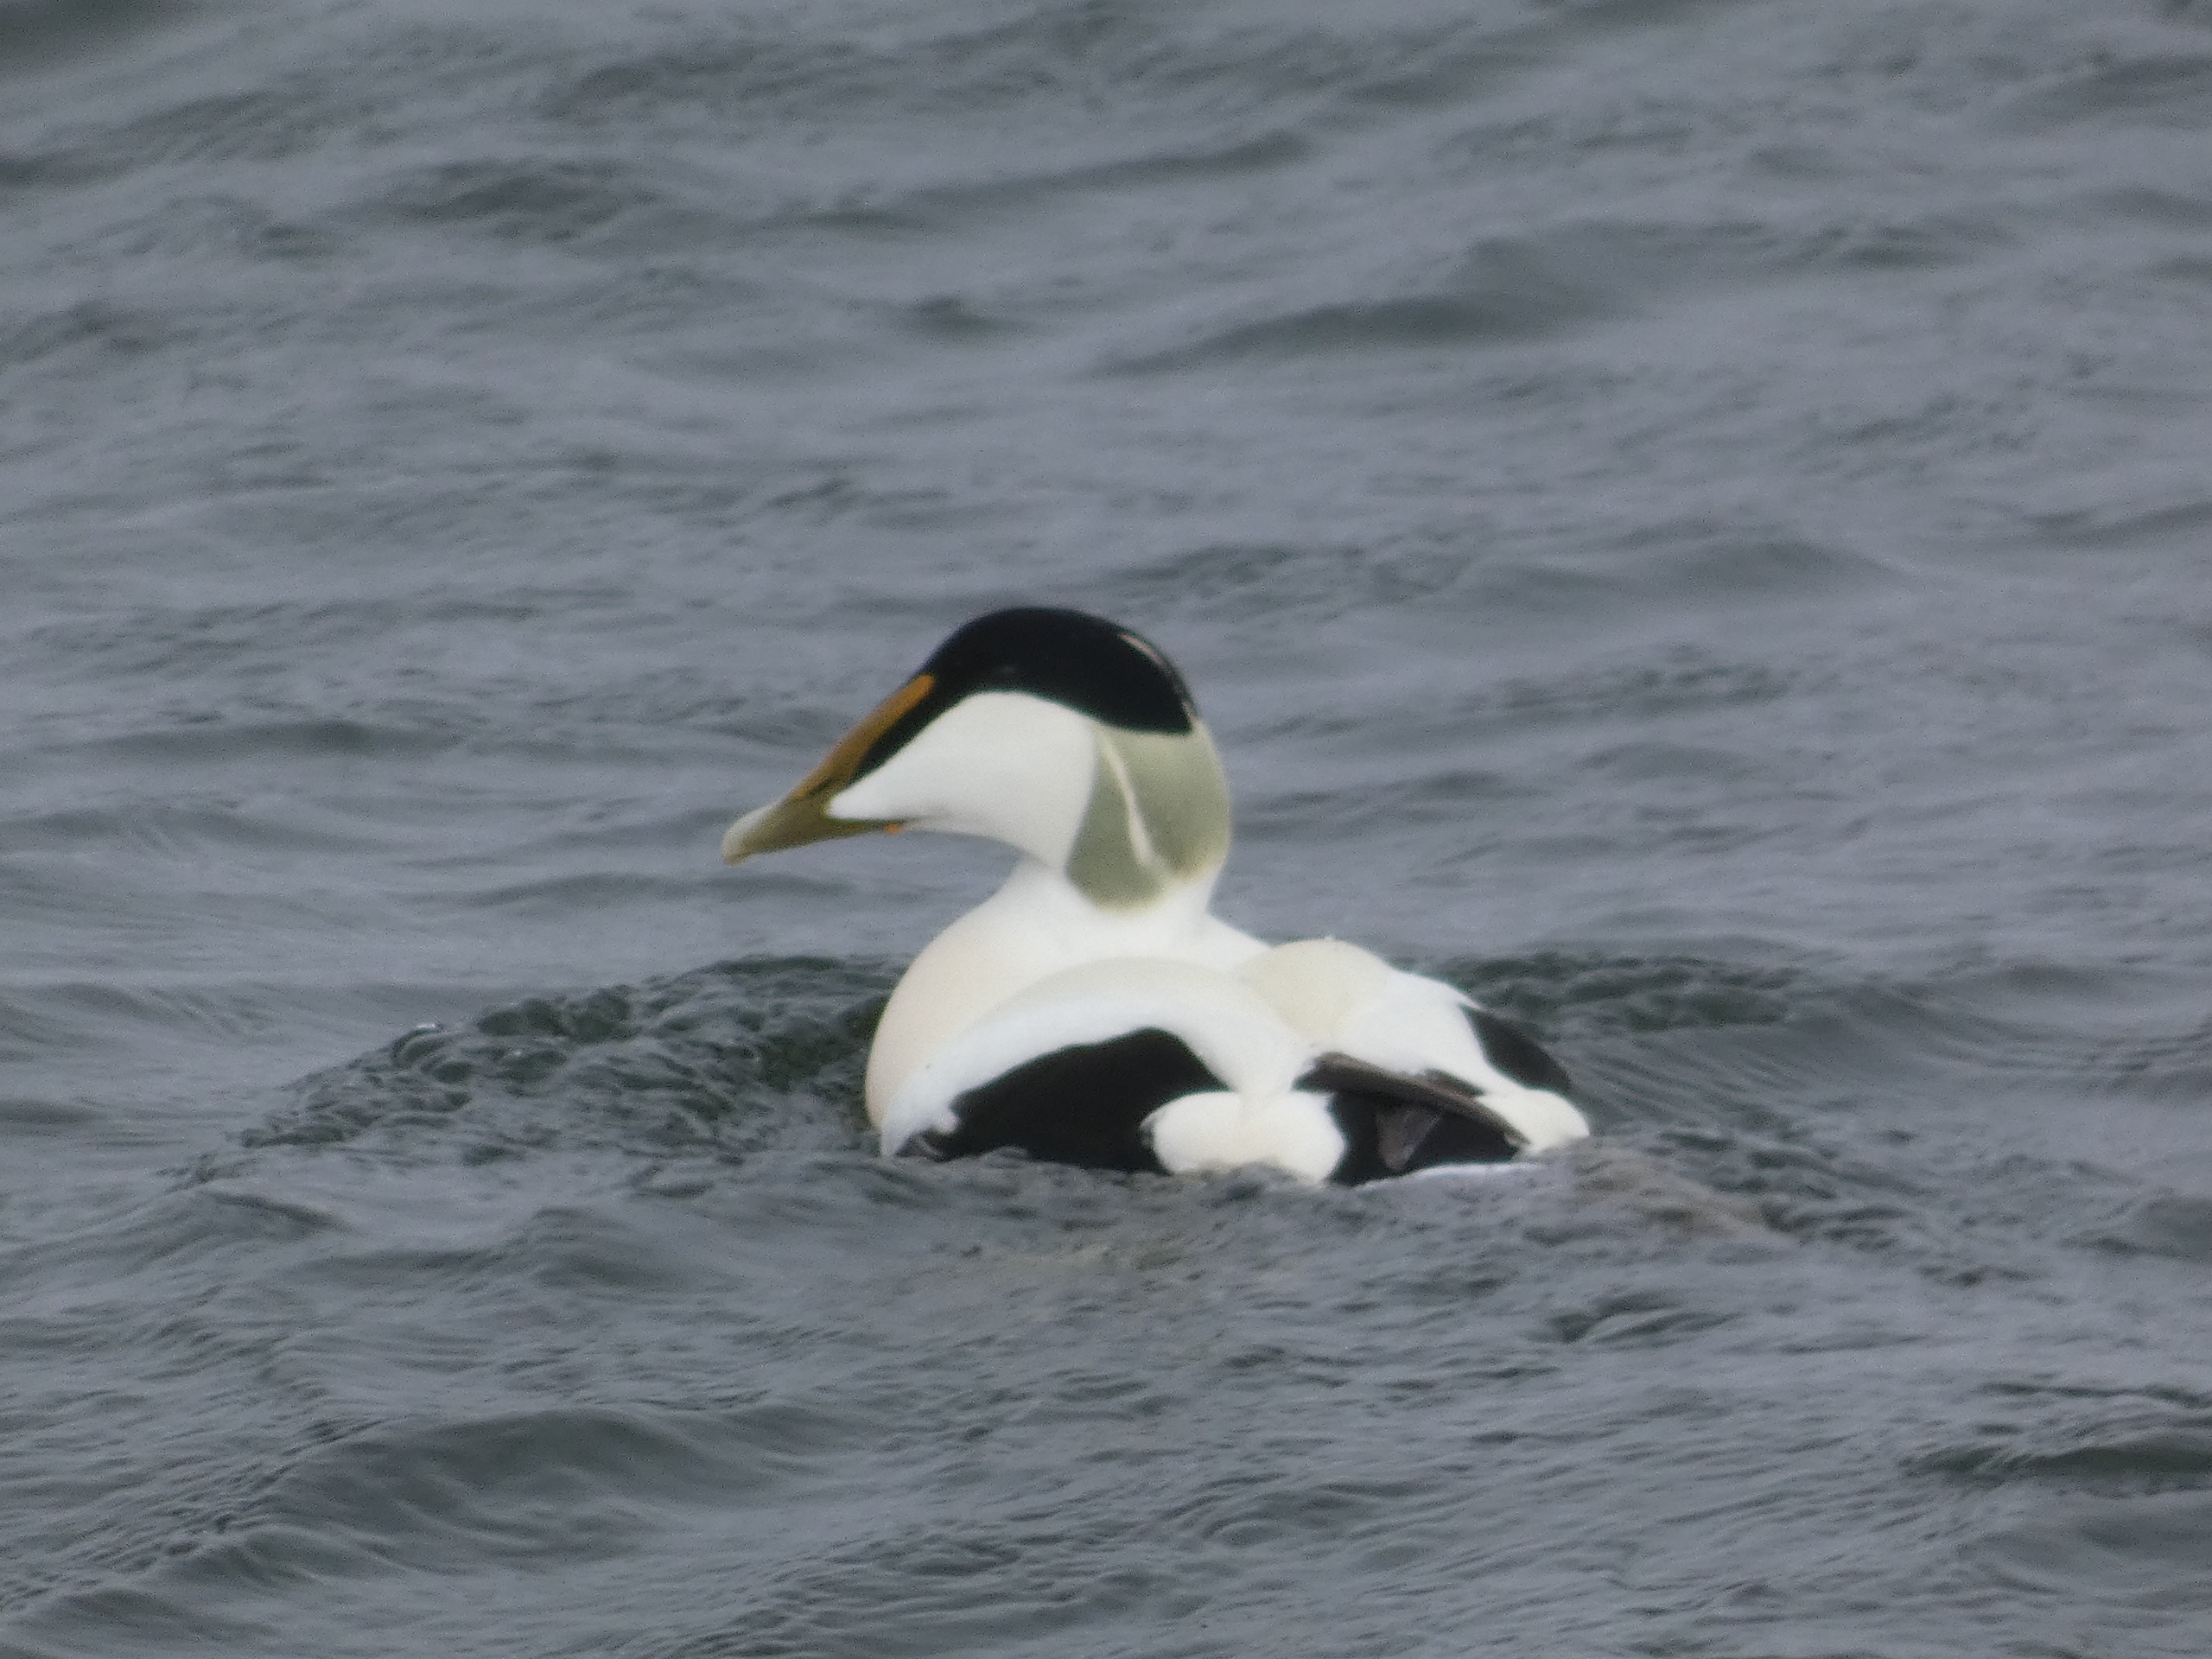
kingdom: Animalia
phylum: Chordata
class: Aves
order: Anseriformes
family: Anatidae
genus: Somateria
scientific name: Somateria mollissima
